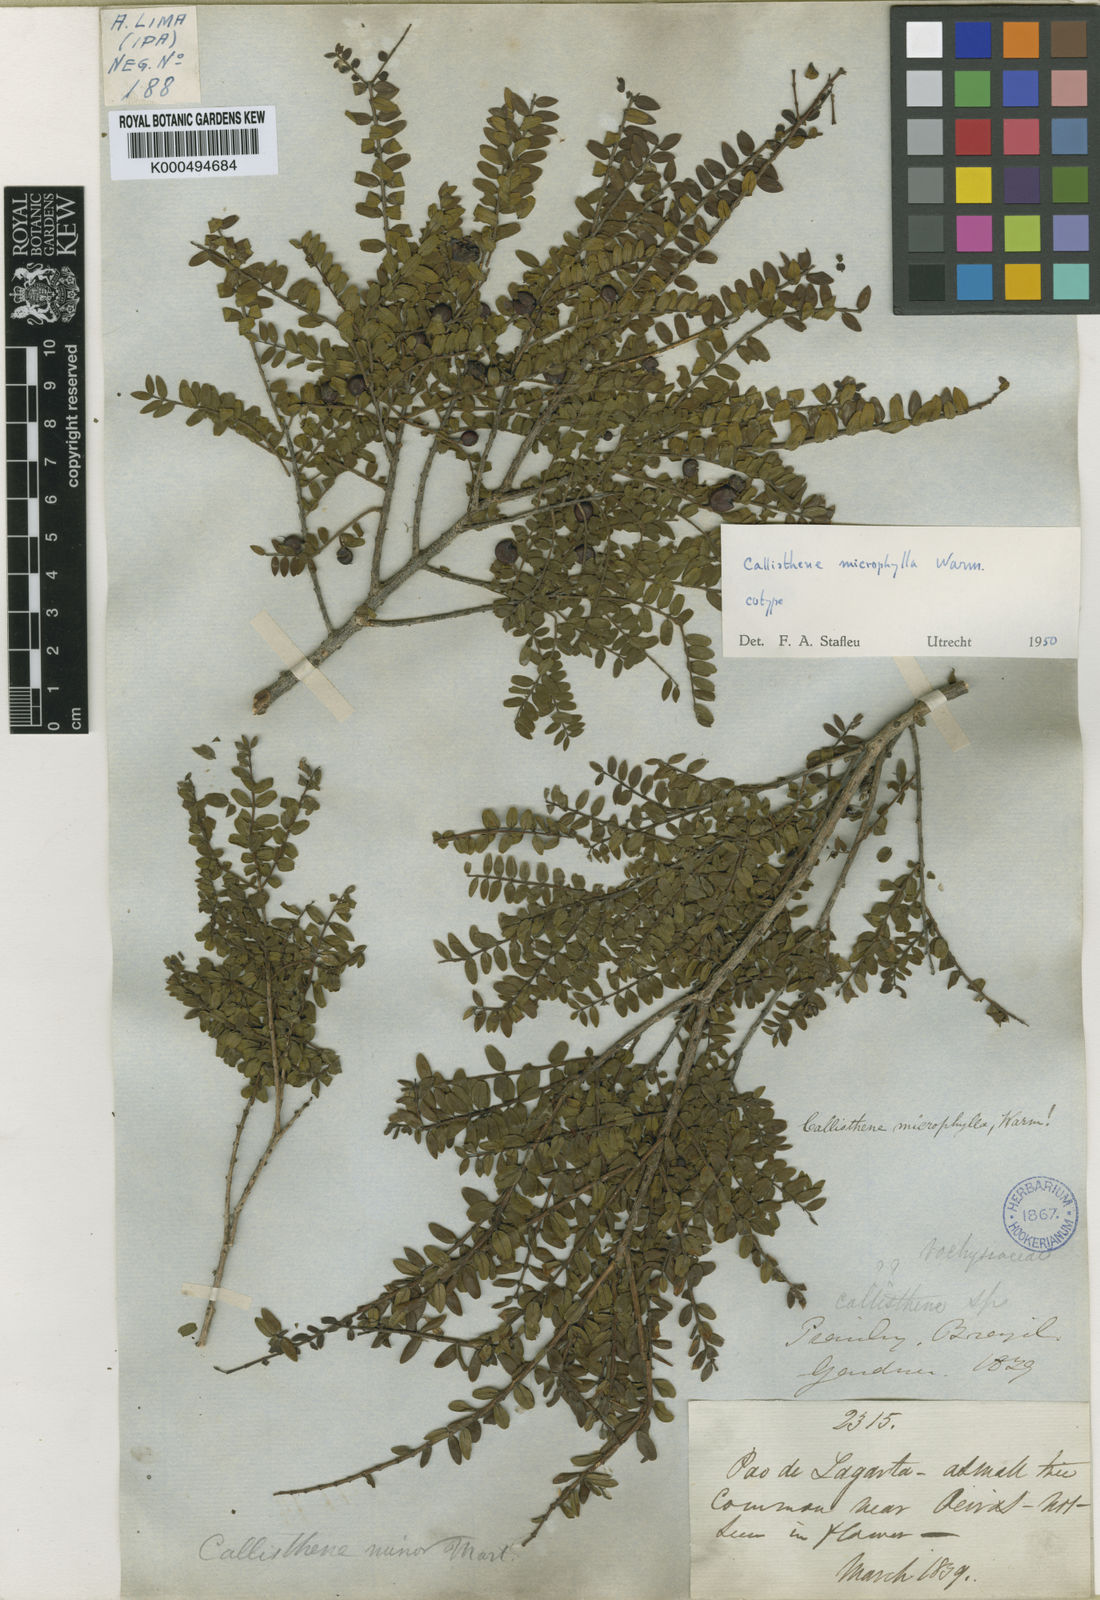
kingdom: Plantae
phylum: Tracheophyta
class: Magnoliopsida
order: Myrtales
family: Vochysiaceae
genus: Callisthene
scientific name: Callisthene minor
